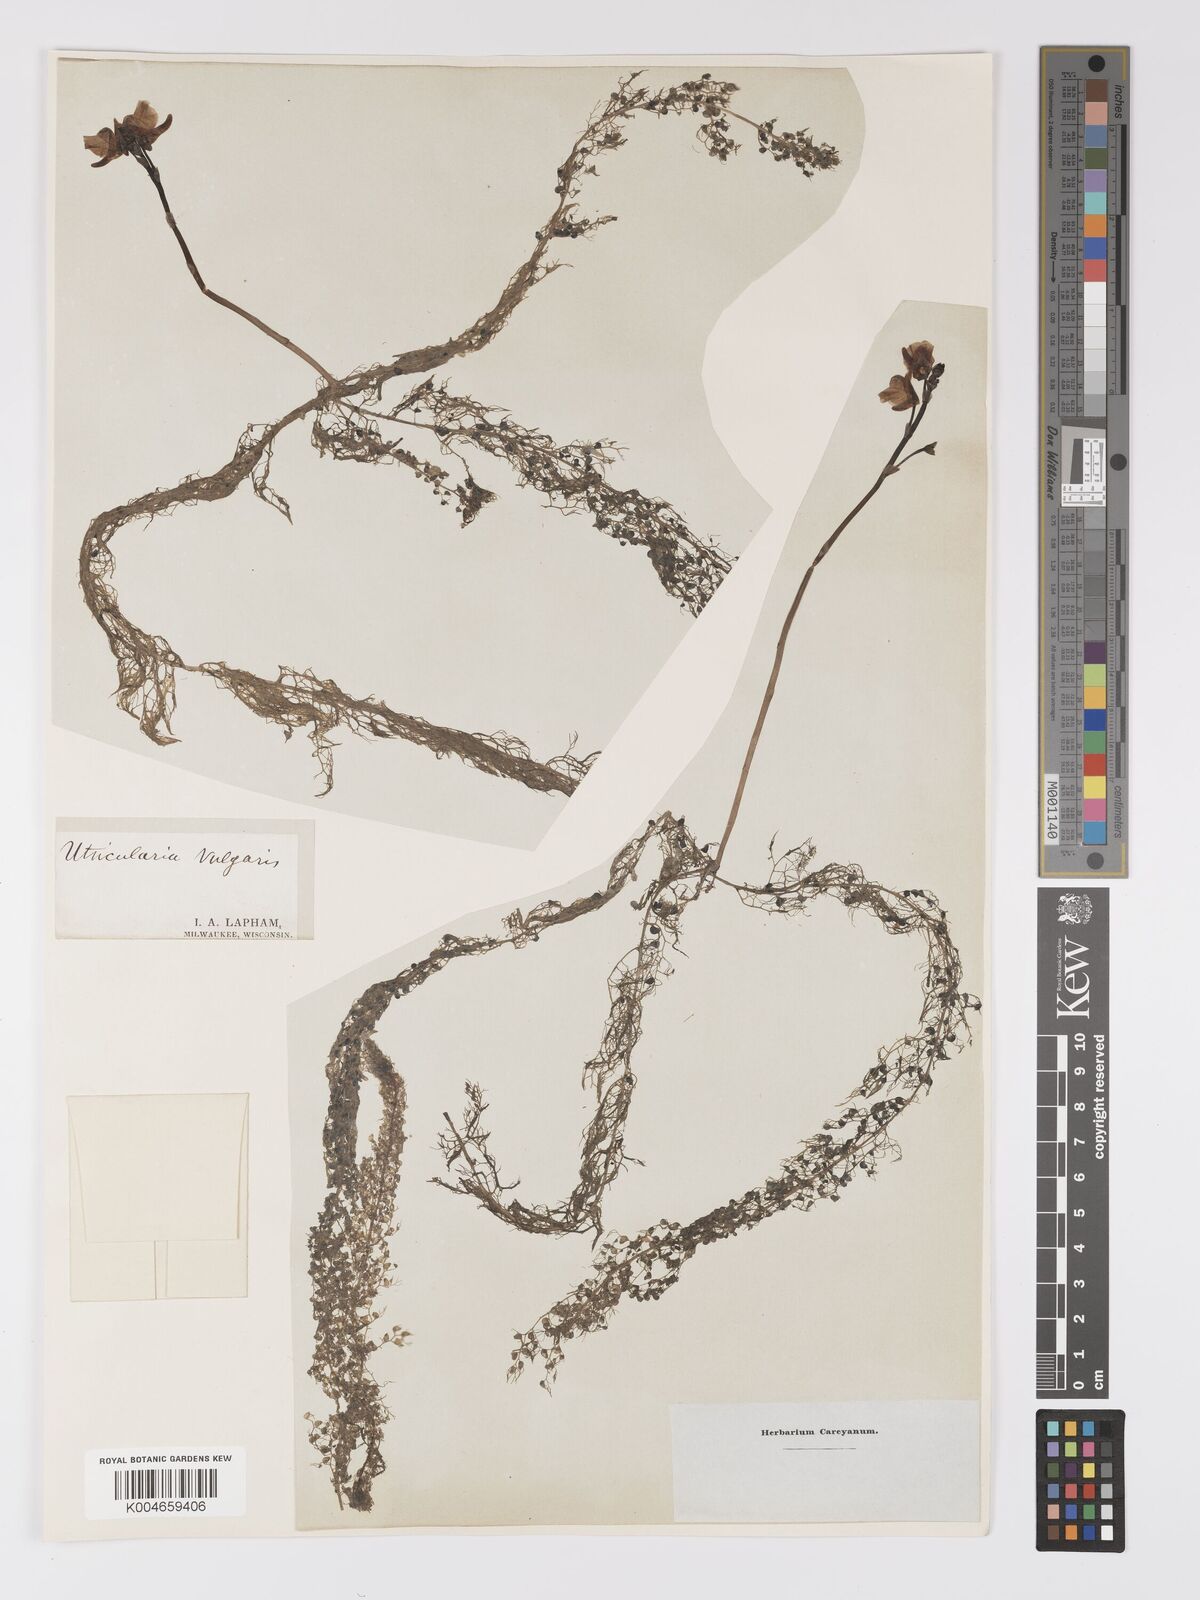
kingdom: Plantae
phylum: Tracheophyta
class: Magnoliopsida
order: Lamiales
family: Lentibulariaceae
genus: Utricularia
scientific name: Utricularia macrorhiza
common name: Common bladderwort
